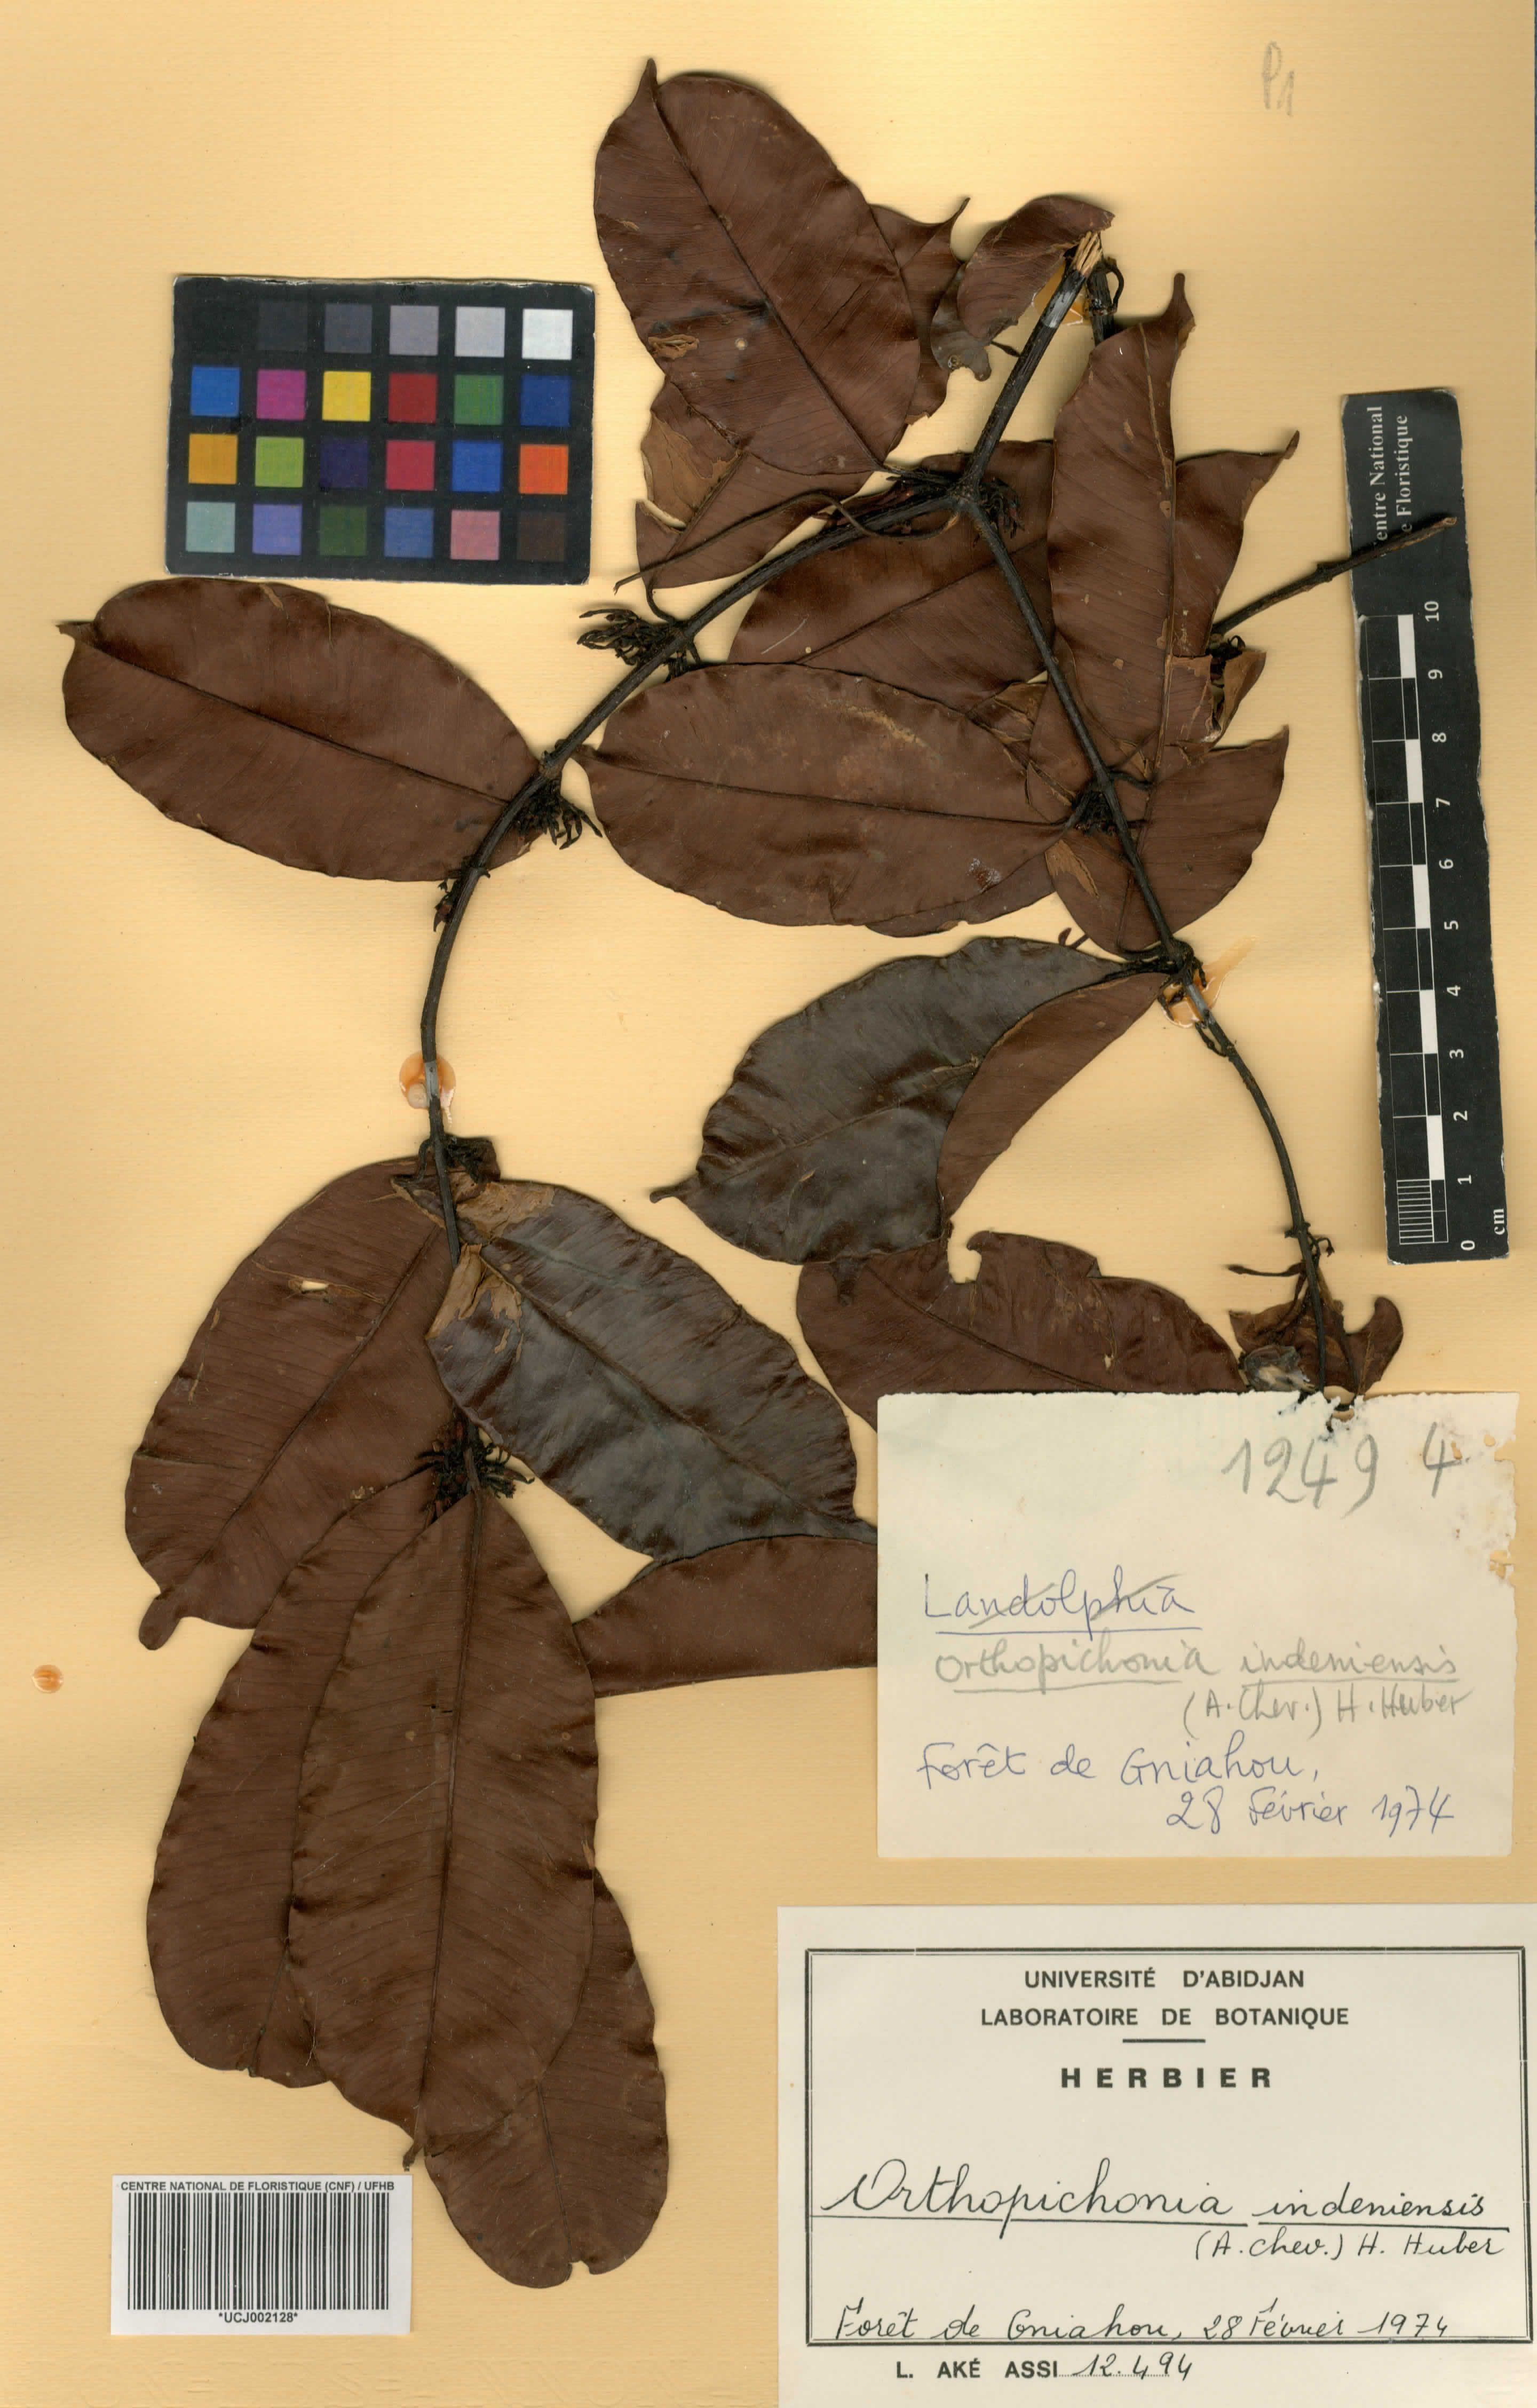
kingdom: Plantae
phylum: Tracheophyta
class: Magnoliopsida
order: Gentianales
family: Apocynaceae
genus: Orthopichonia
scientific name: Orthopichonia indeniensis
